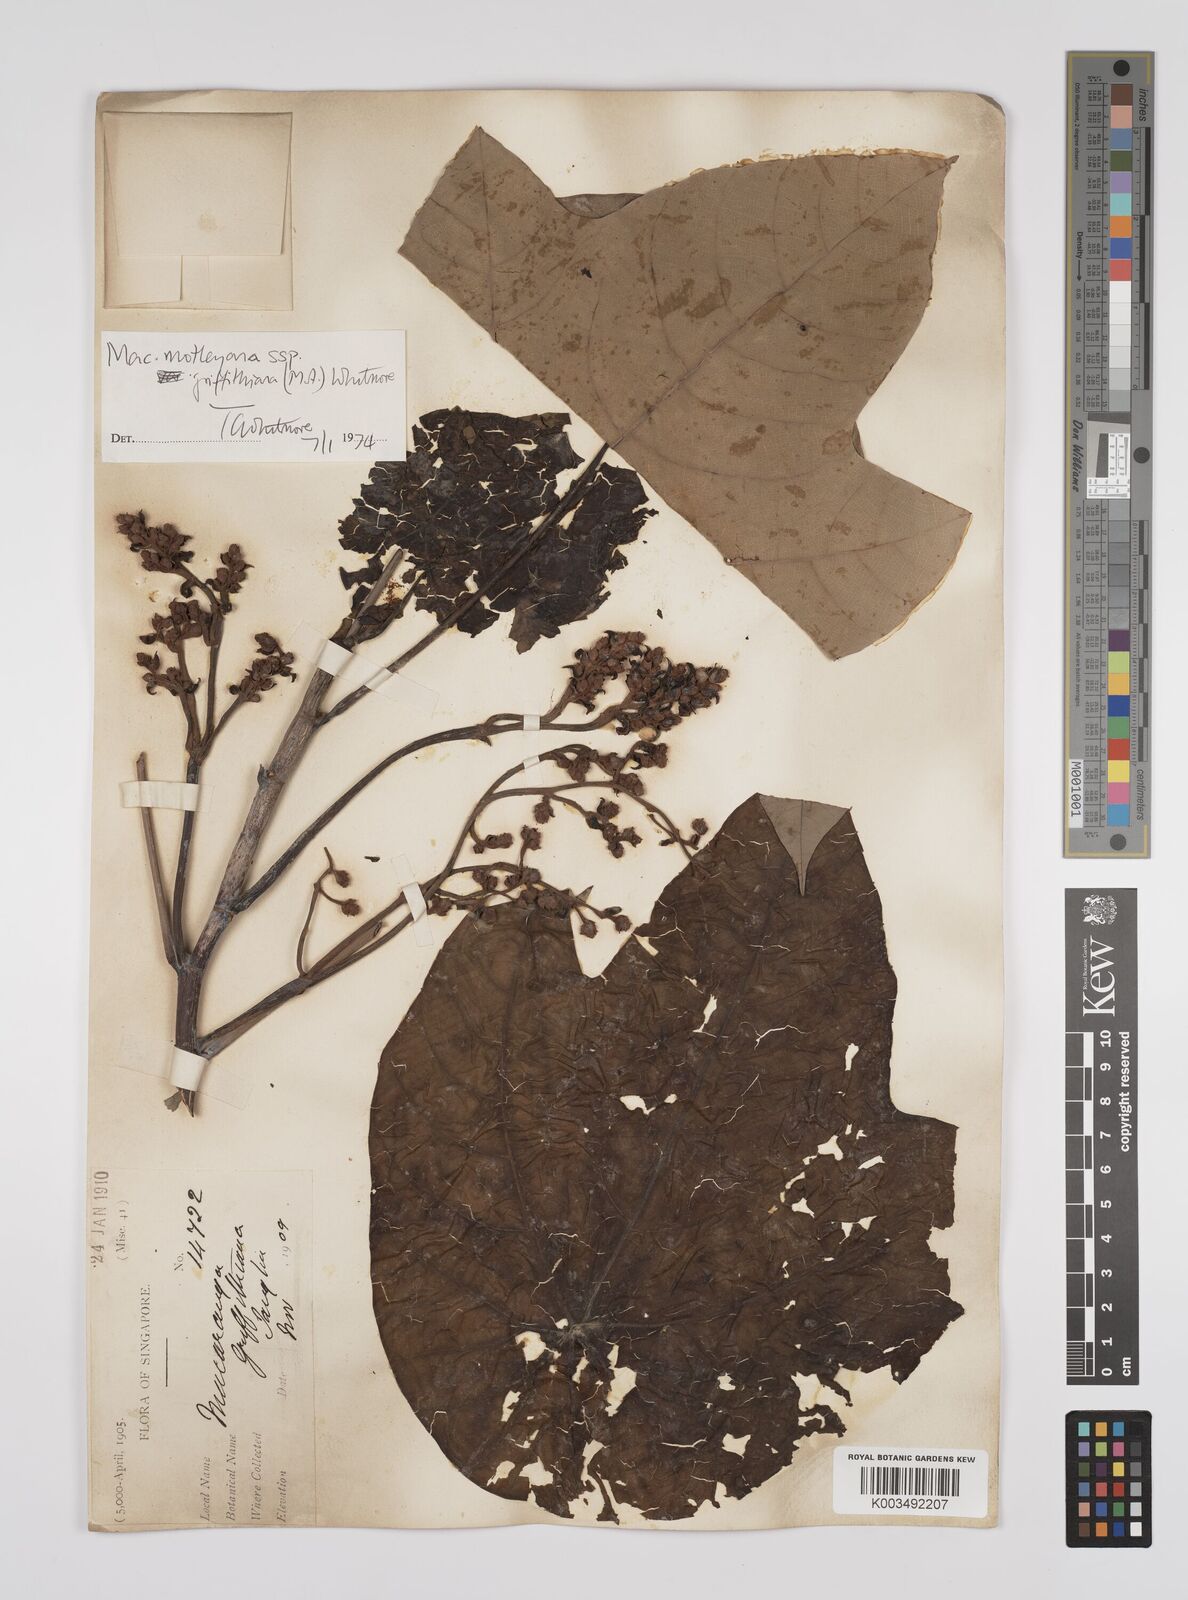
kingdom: Plantae
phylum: Tracheophyta
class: Magnoliopsida
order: Malpighiales
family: Euphorbiaceae
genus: Macaranga
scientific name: Macaranga griffithiana
